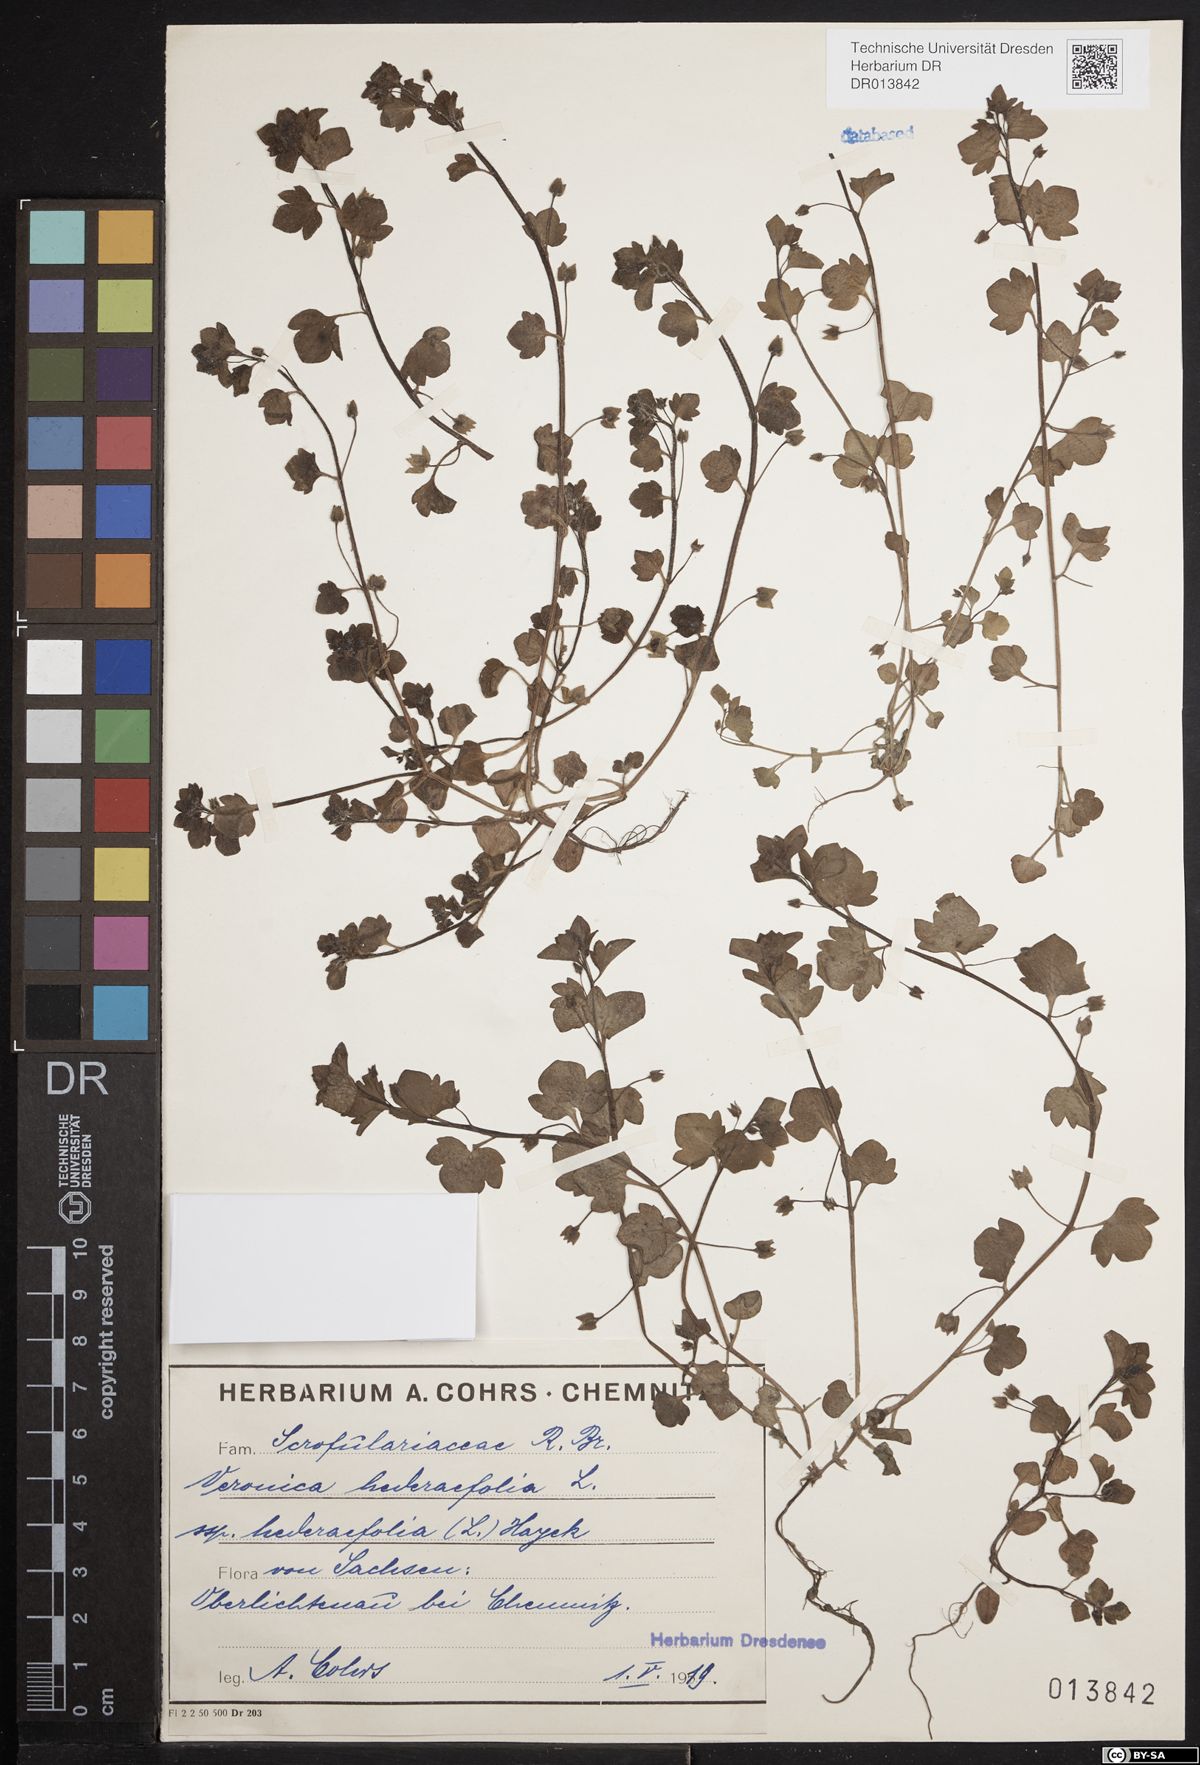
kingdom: Plantae
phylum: Tracheophyta
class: Magnoliopsida
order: Lamiales
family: Plantaginaceae
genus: Veronica
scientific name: Veronica hederifolia
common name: Ivy-leaved speedwell
